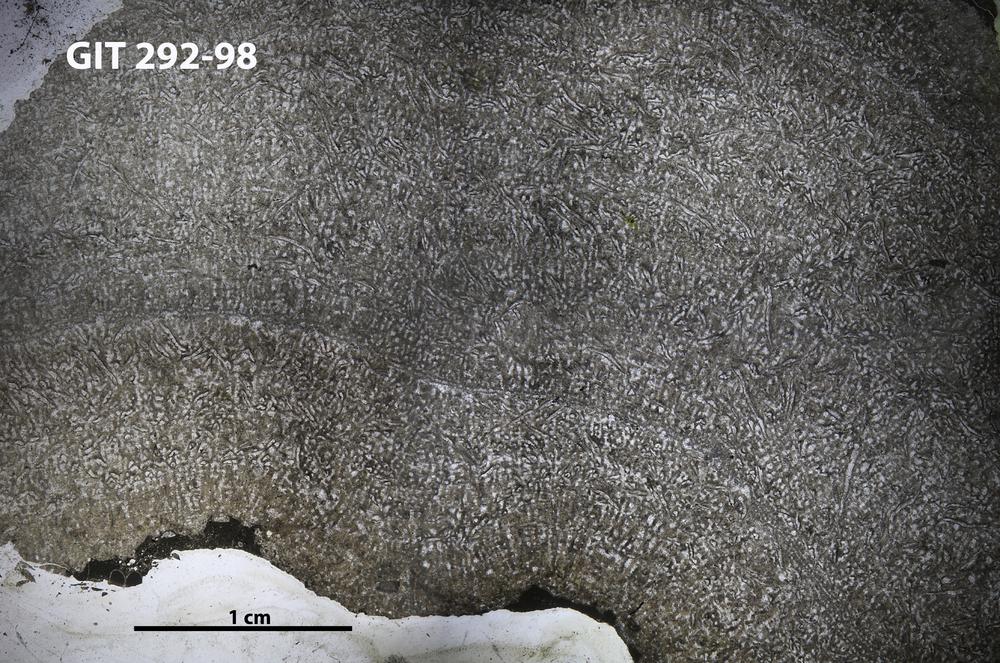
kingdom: Animalia
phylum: Porifera
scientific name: Porifera
